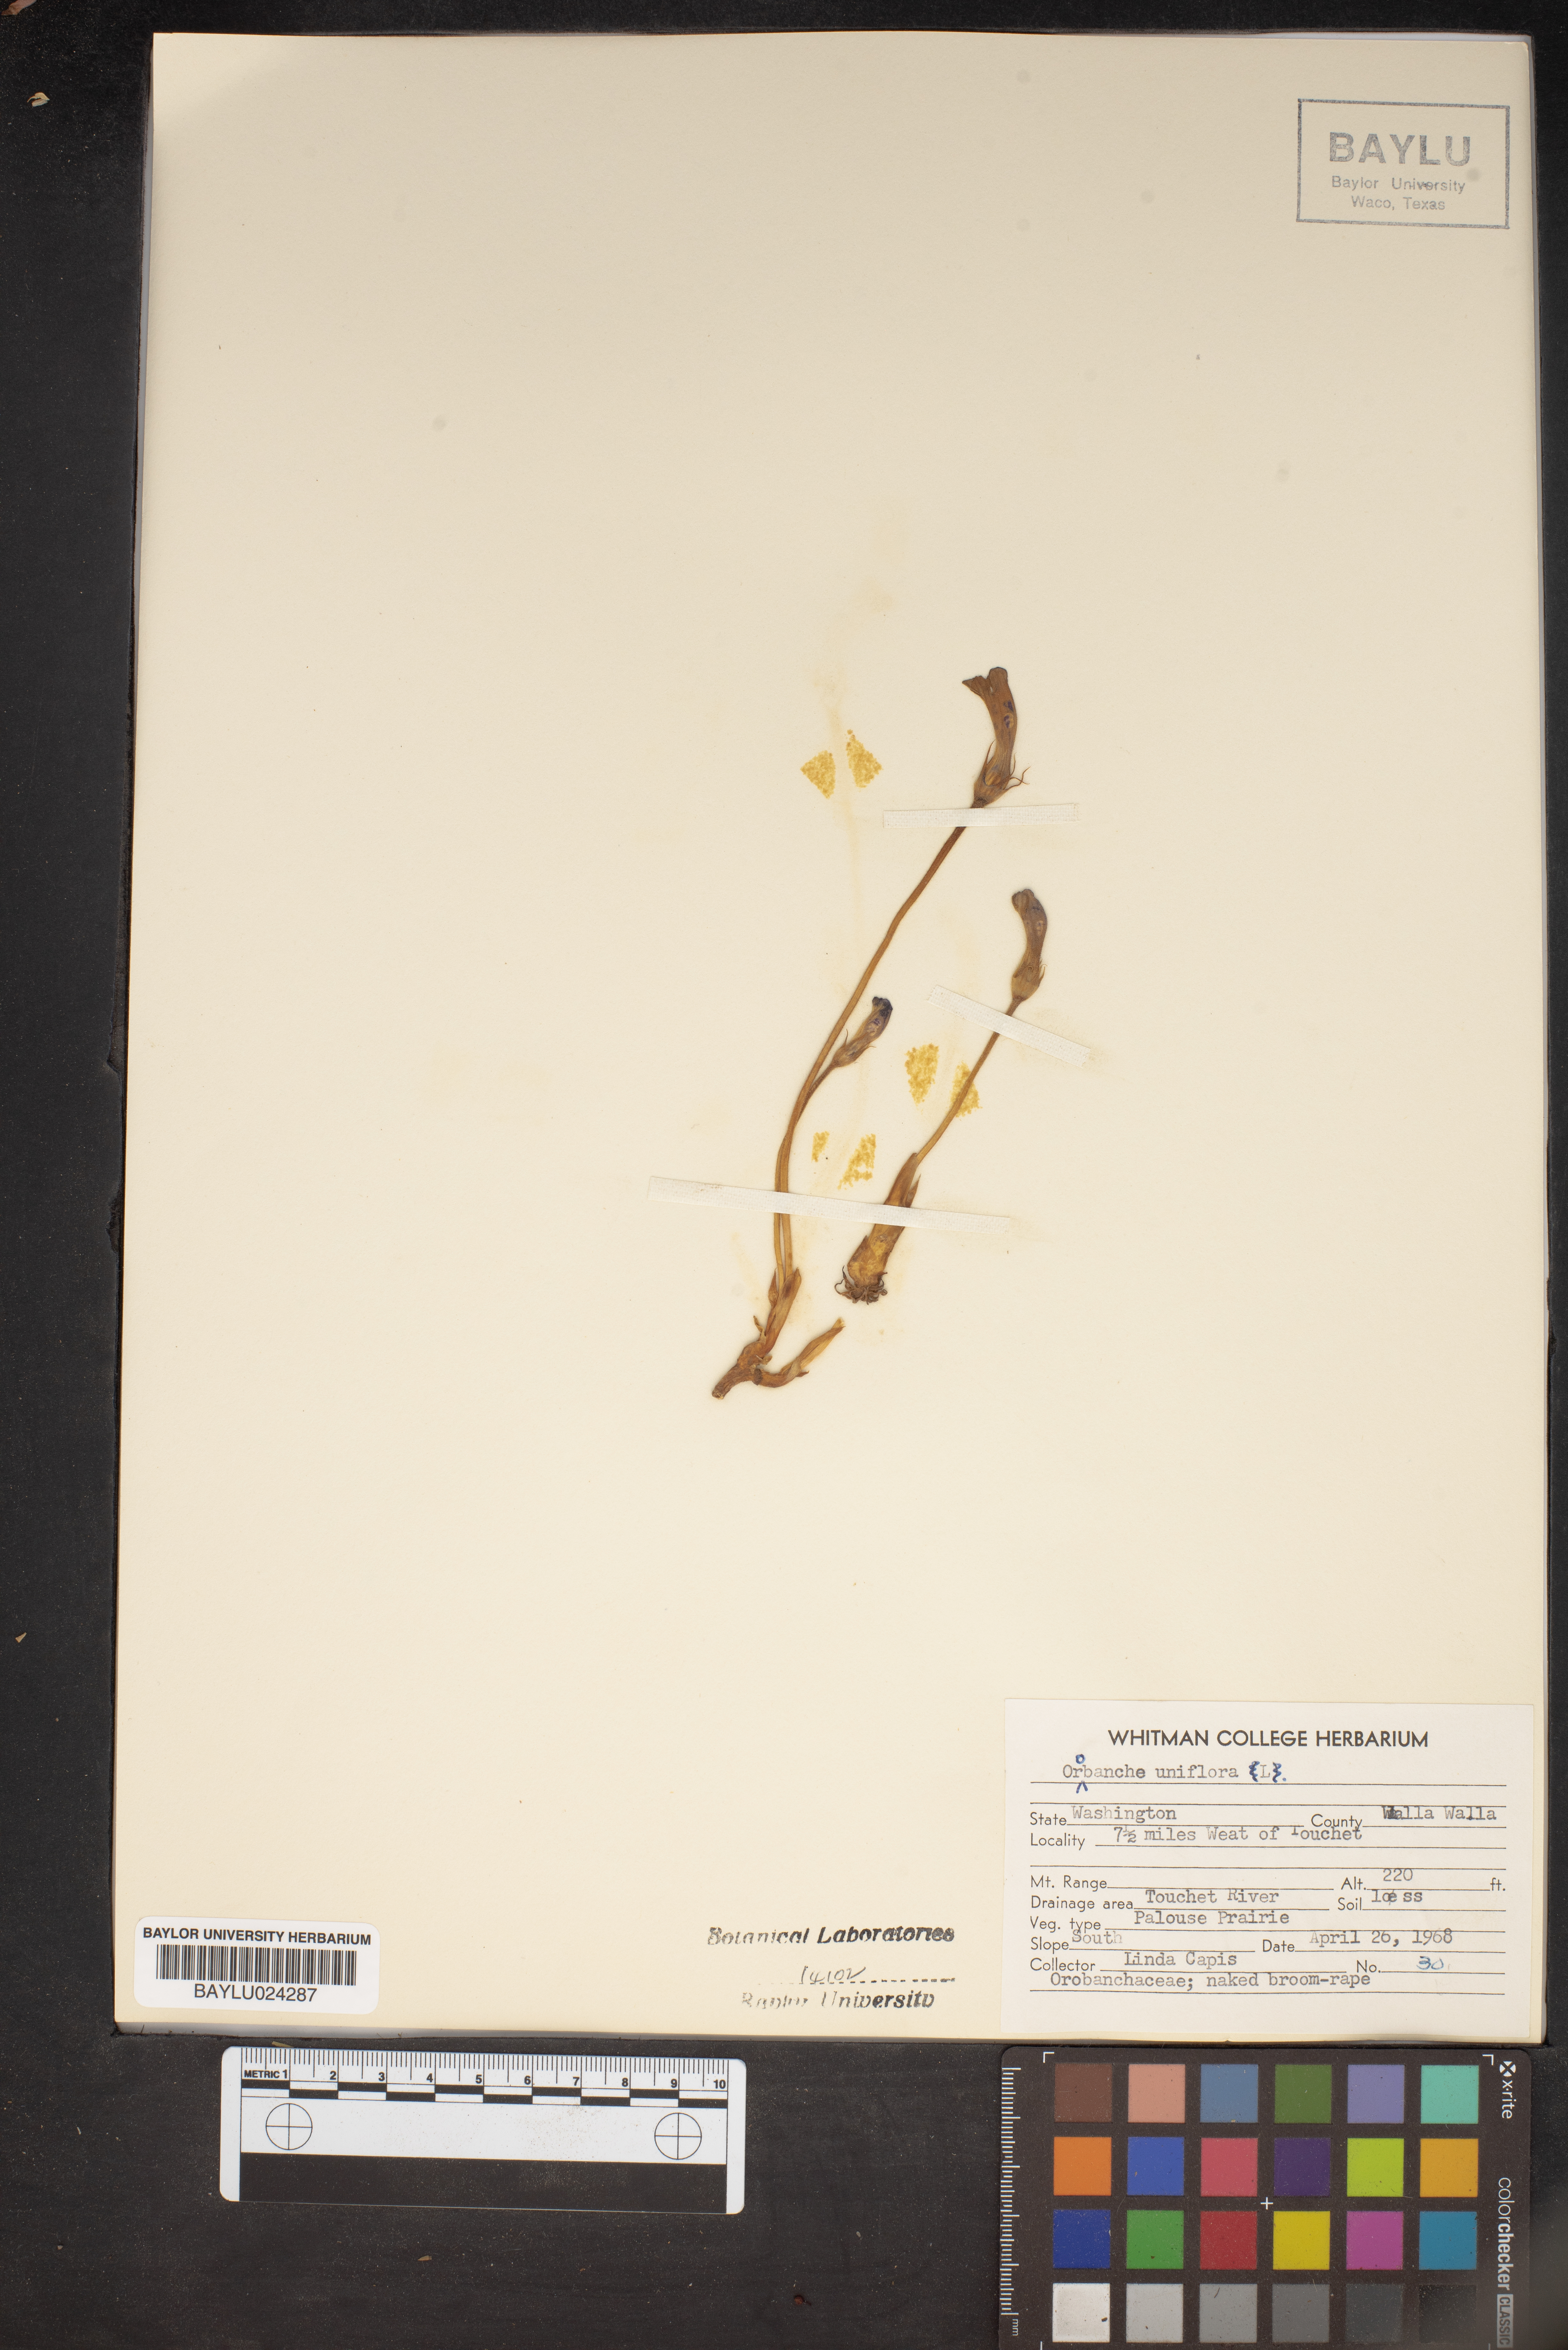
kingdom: Plantae
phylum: Tracheophyta
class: Magnoliopsida
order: Lamiales
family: Orobanchaceae
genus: Aphyllon
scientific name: Aphyllon uniflorum
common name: One-flowered broomrape
